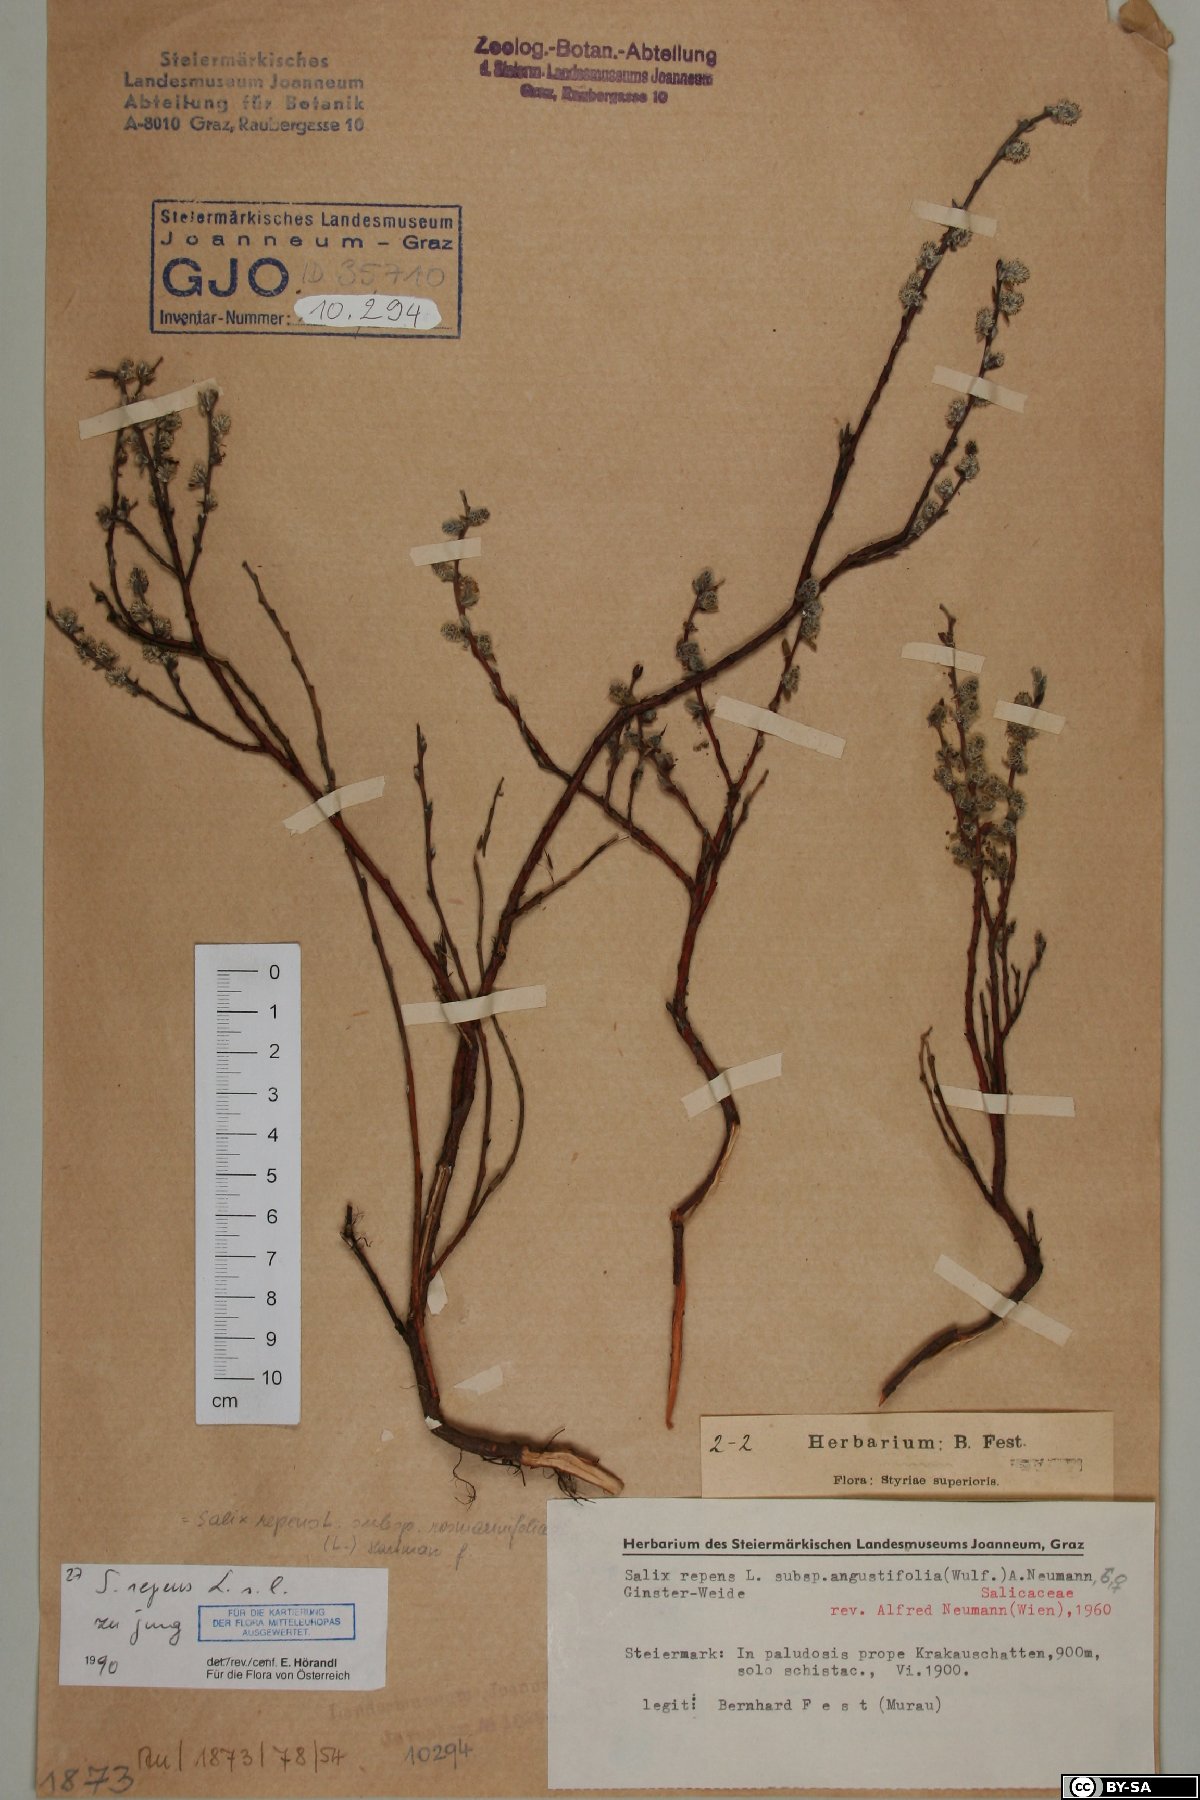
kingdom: Plantae
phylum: Tracheophyta
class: Magnoliopsida
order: Malpighiales
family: Salicaceae
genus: Salix
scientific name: Salix repens
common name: Creeping willow
